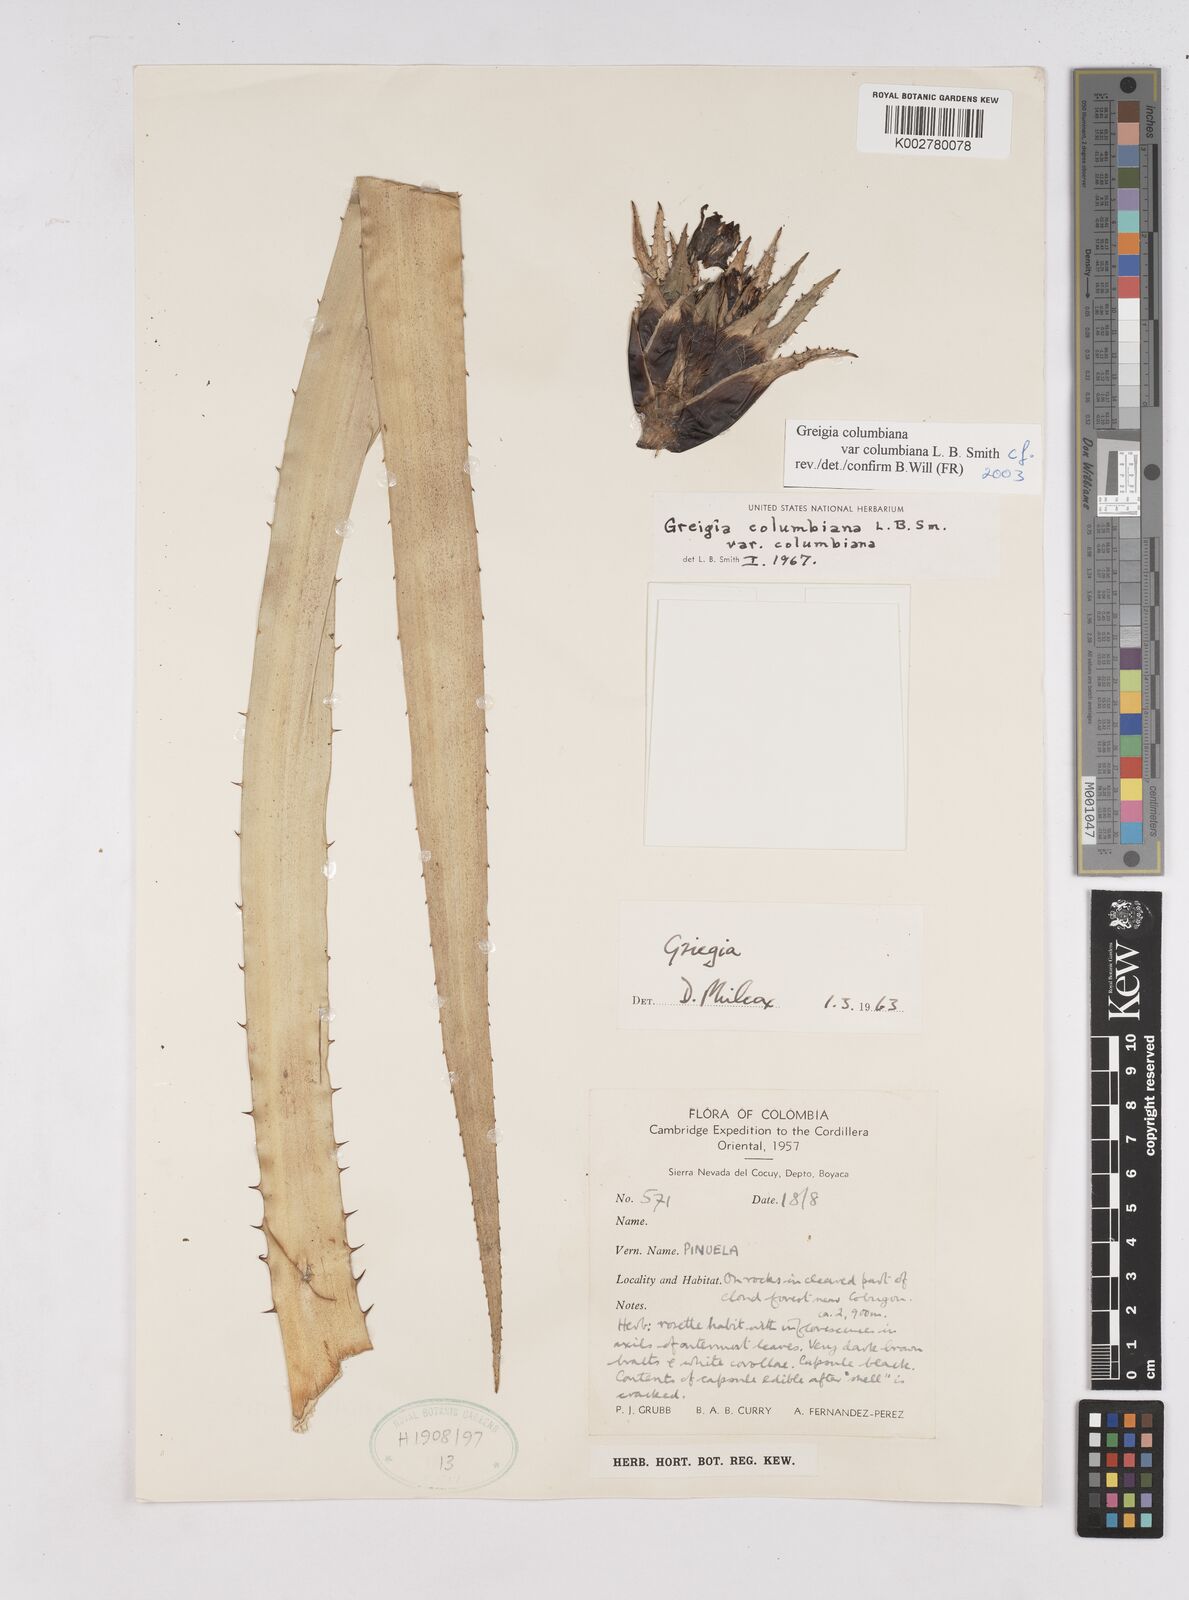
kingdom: Plantae
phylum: Tracheophyta
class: Liliopsida
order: Poales
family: Bromeliaceae
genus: Greigia
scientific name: Greigia columbiana
